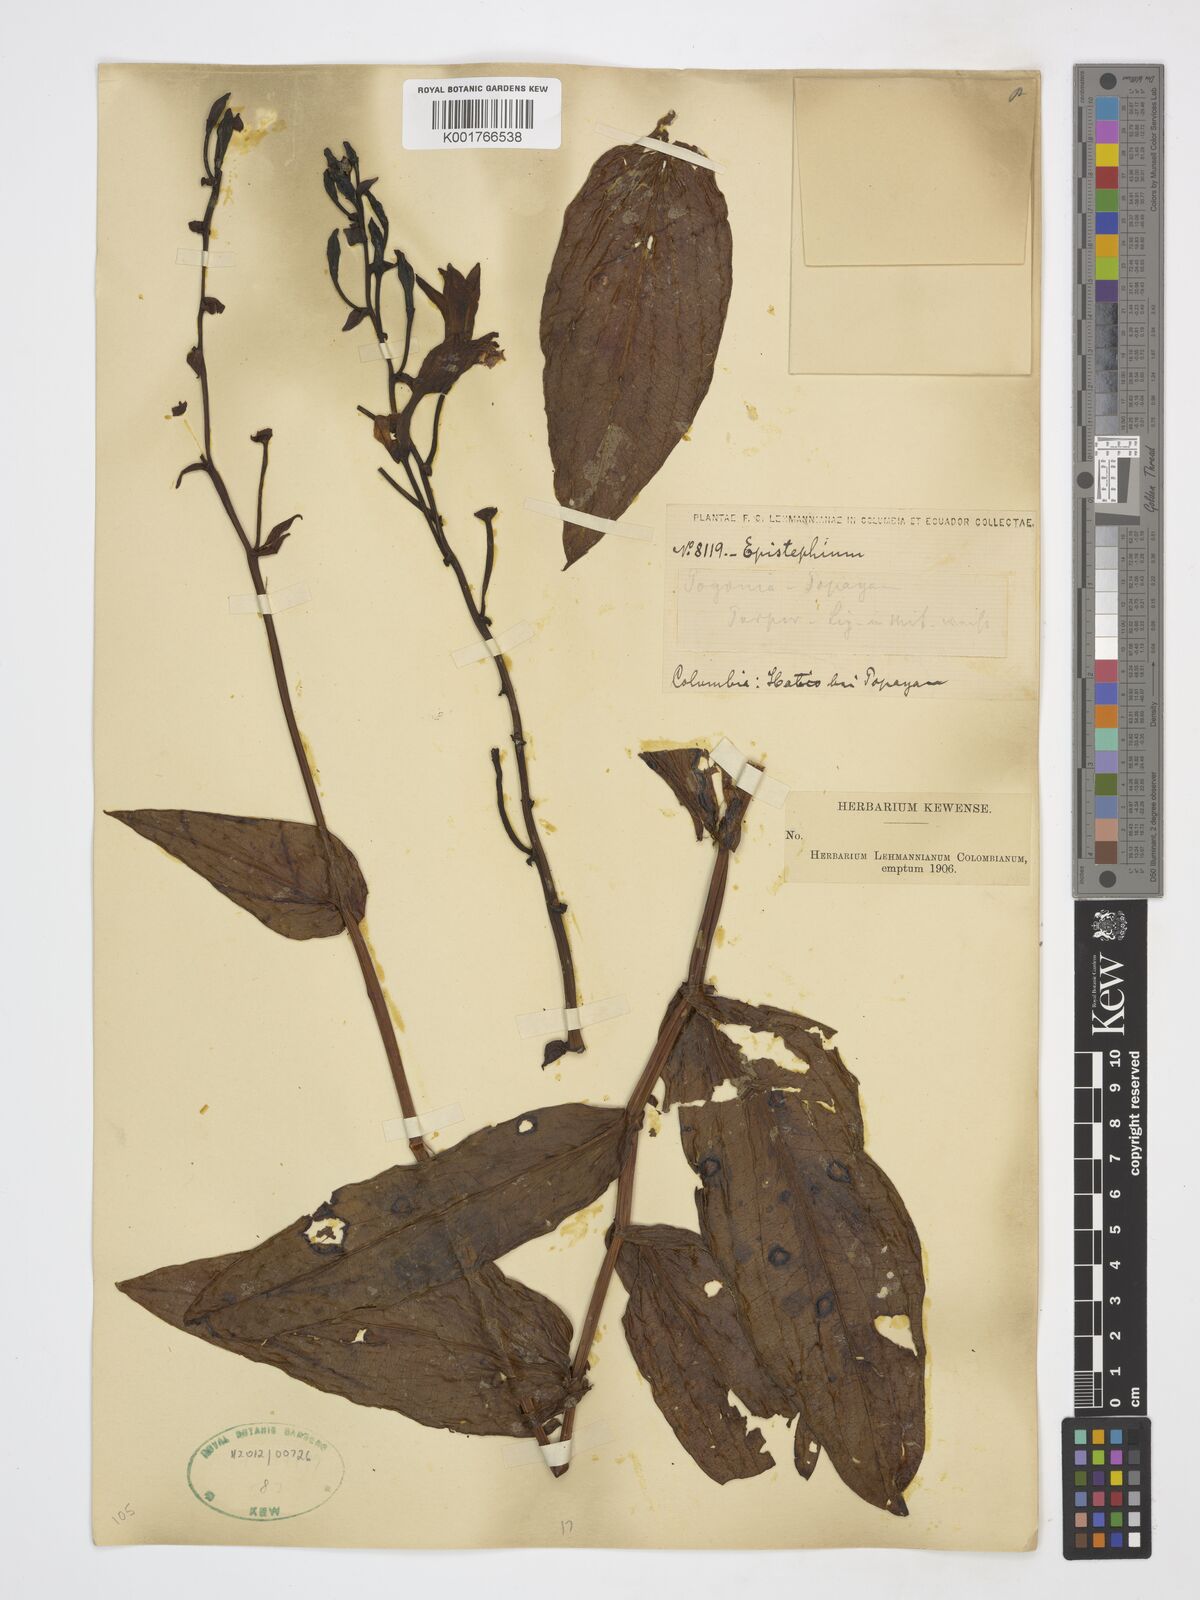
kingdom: Plantae
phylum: Tracheophyta
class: Liliopsida
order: Asparagales
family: Orchidaceae
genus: Epistephium
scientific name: Epistephium
